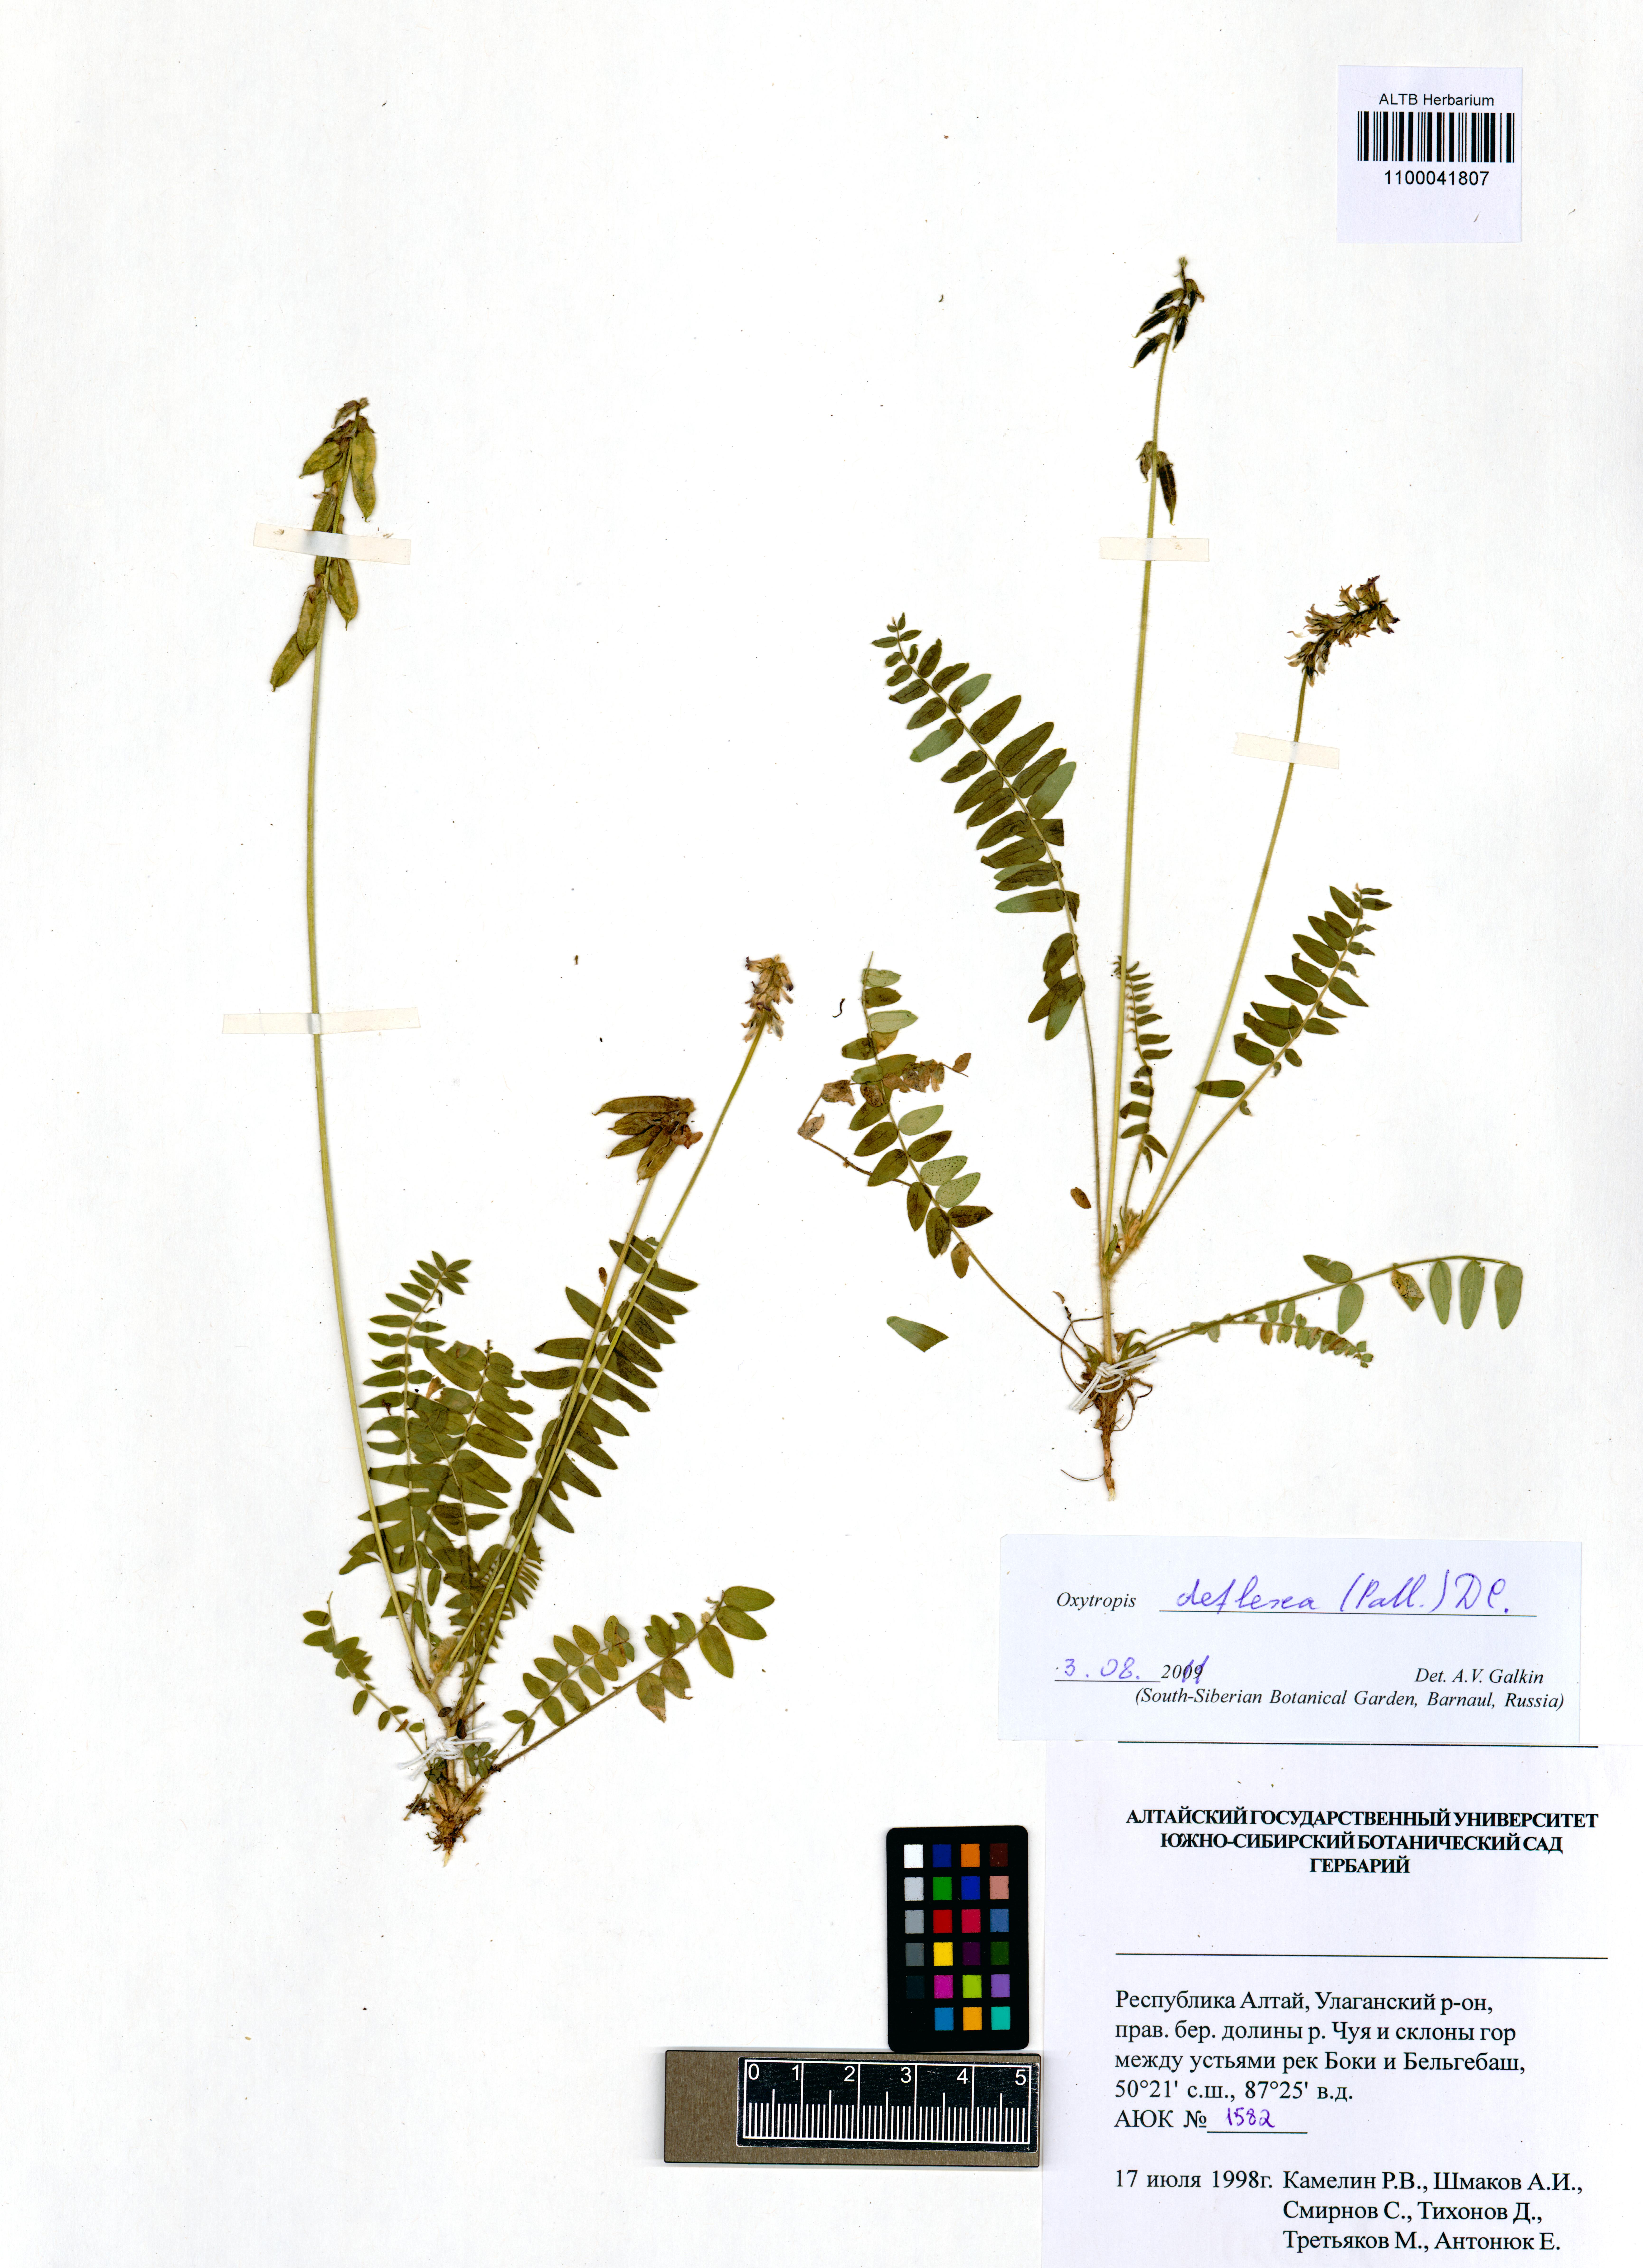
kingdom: Plantae
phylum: Tracheophyta
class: Magnoliopsida
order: Fabales
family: Fabaceae
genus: Oxytropis
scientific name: Oxytropis deflexa
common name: Stemmed oxytrope
